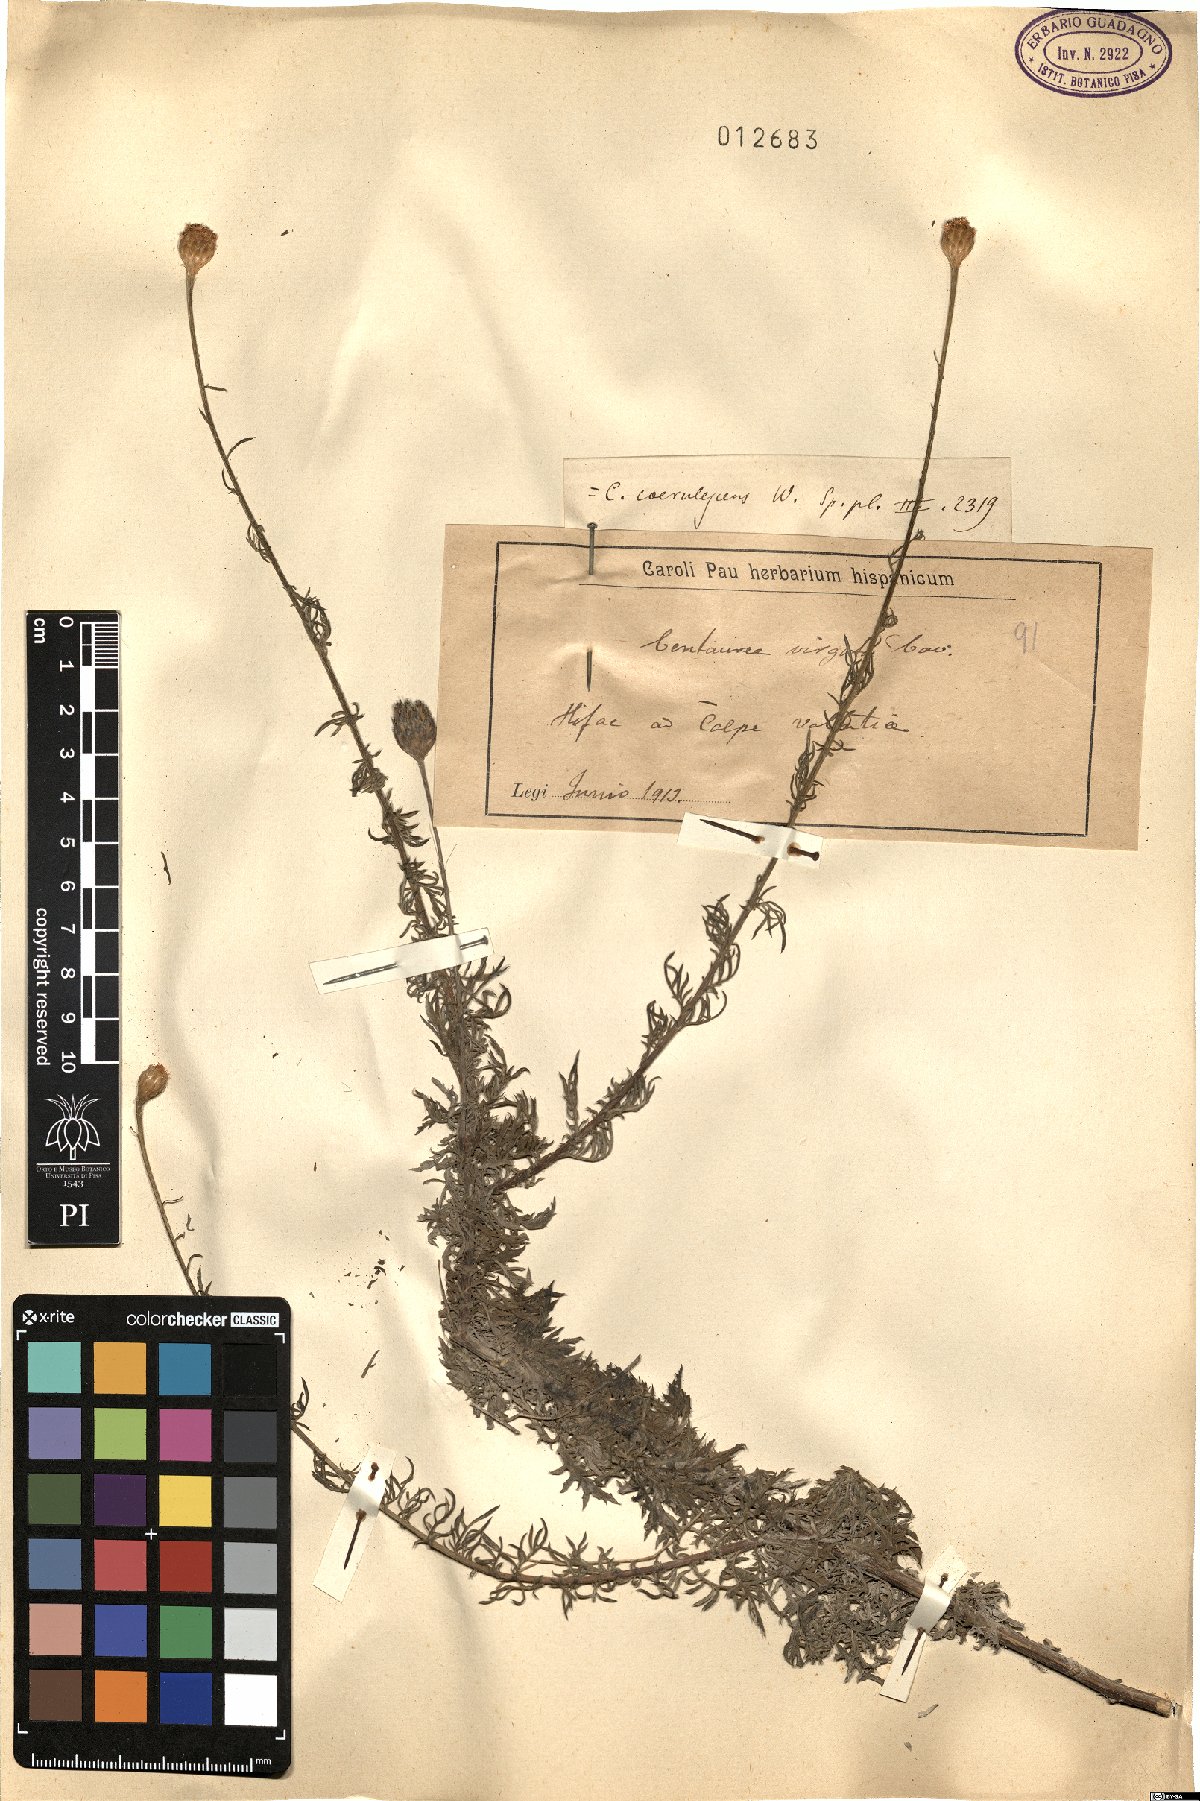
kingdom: Plantae
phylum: Tracheophyta
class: Magnoliopsida
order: Asterales
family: Asteraceae
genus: Centaurea
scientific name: Centaurea virgata
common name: Squarrose knapweed
